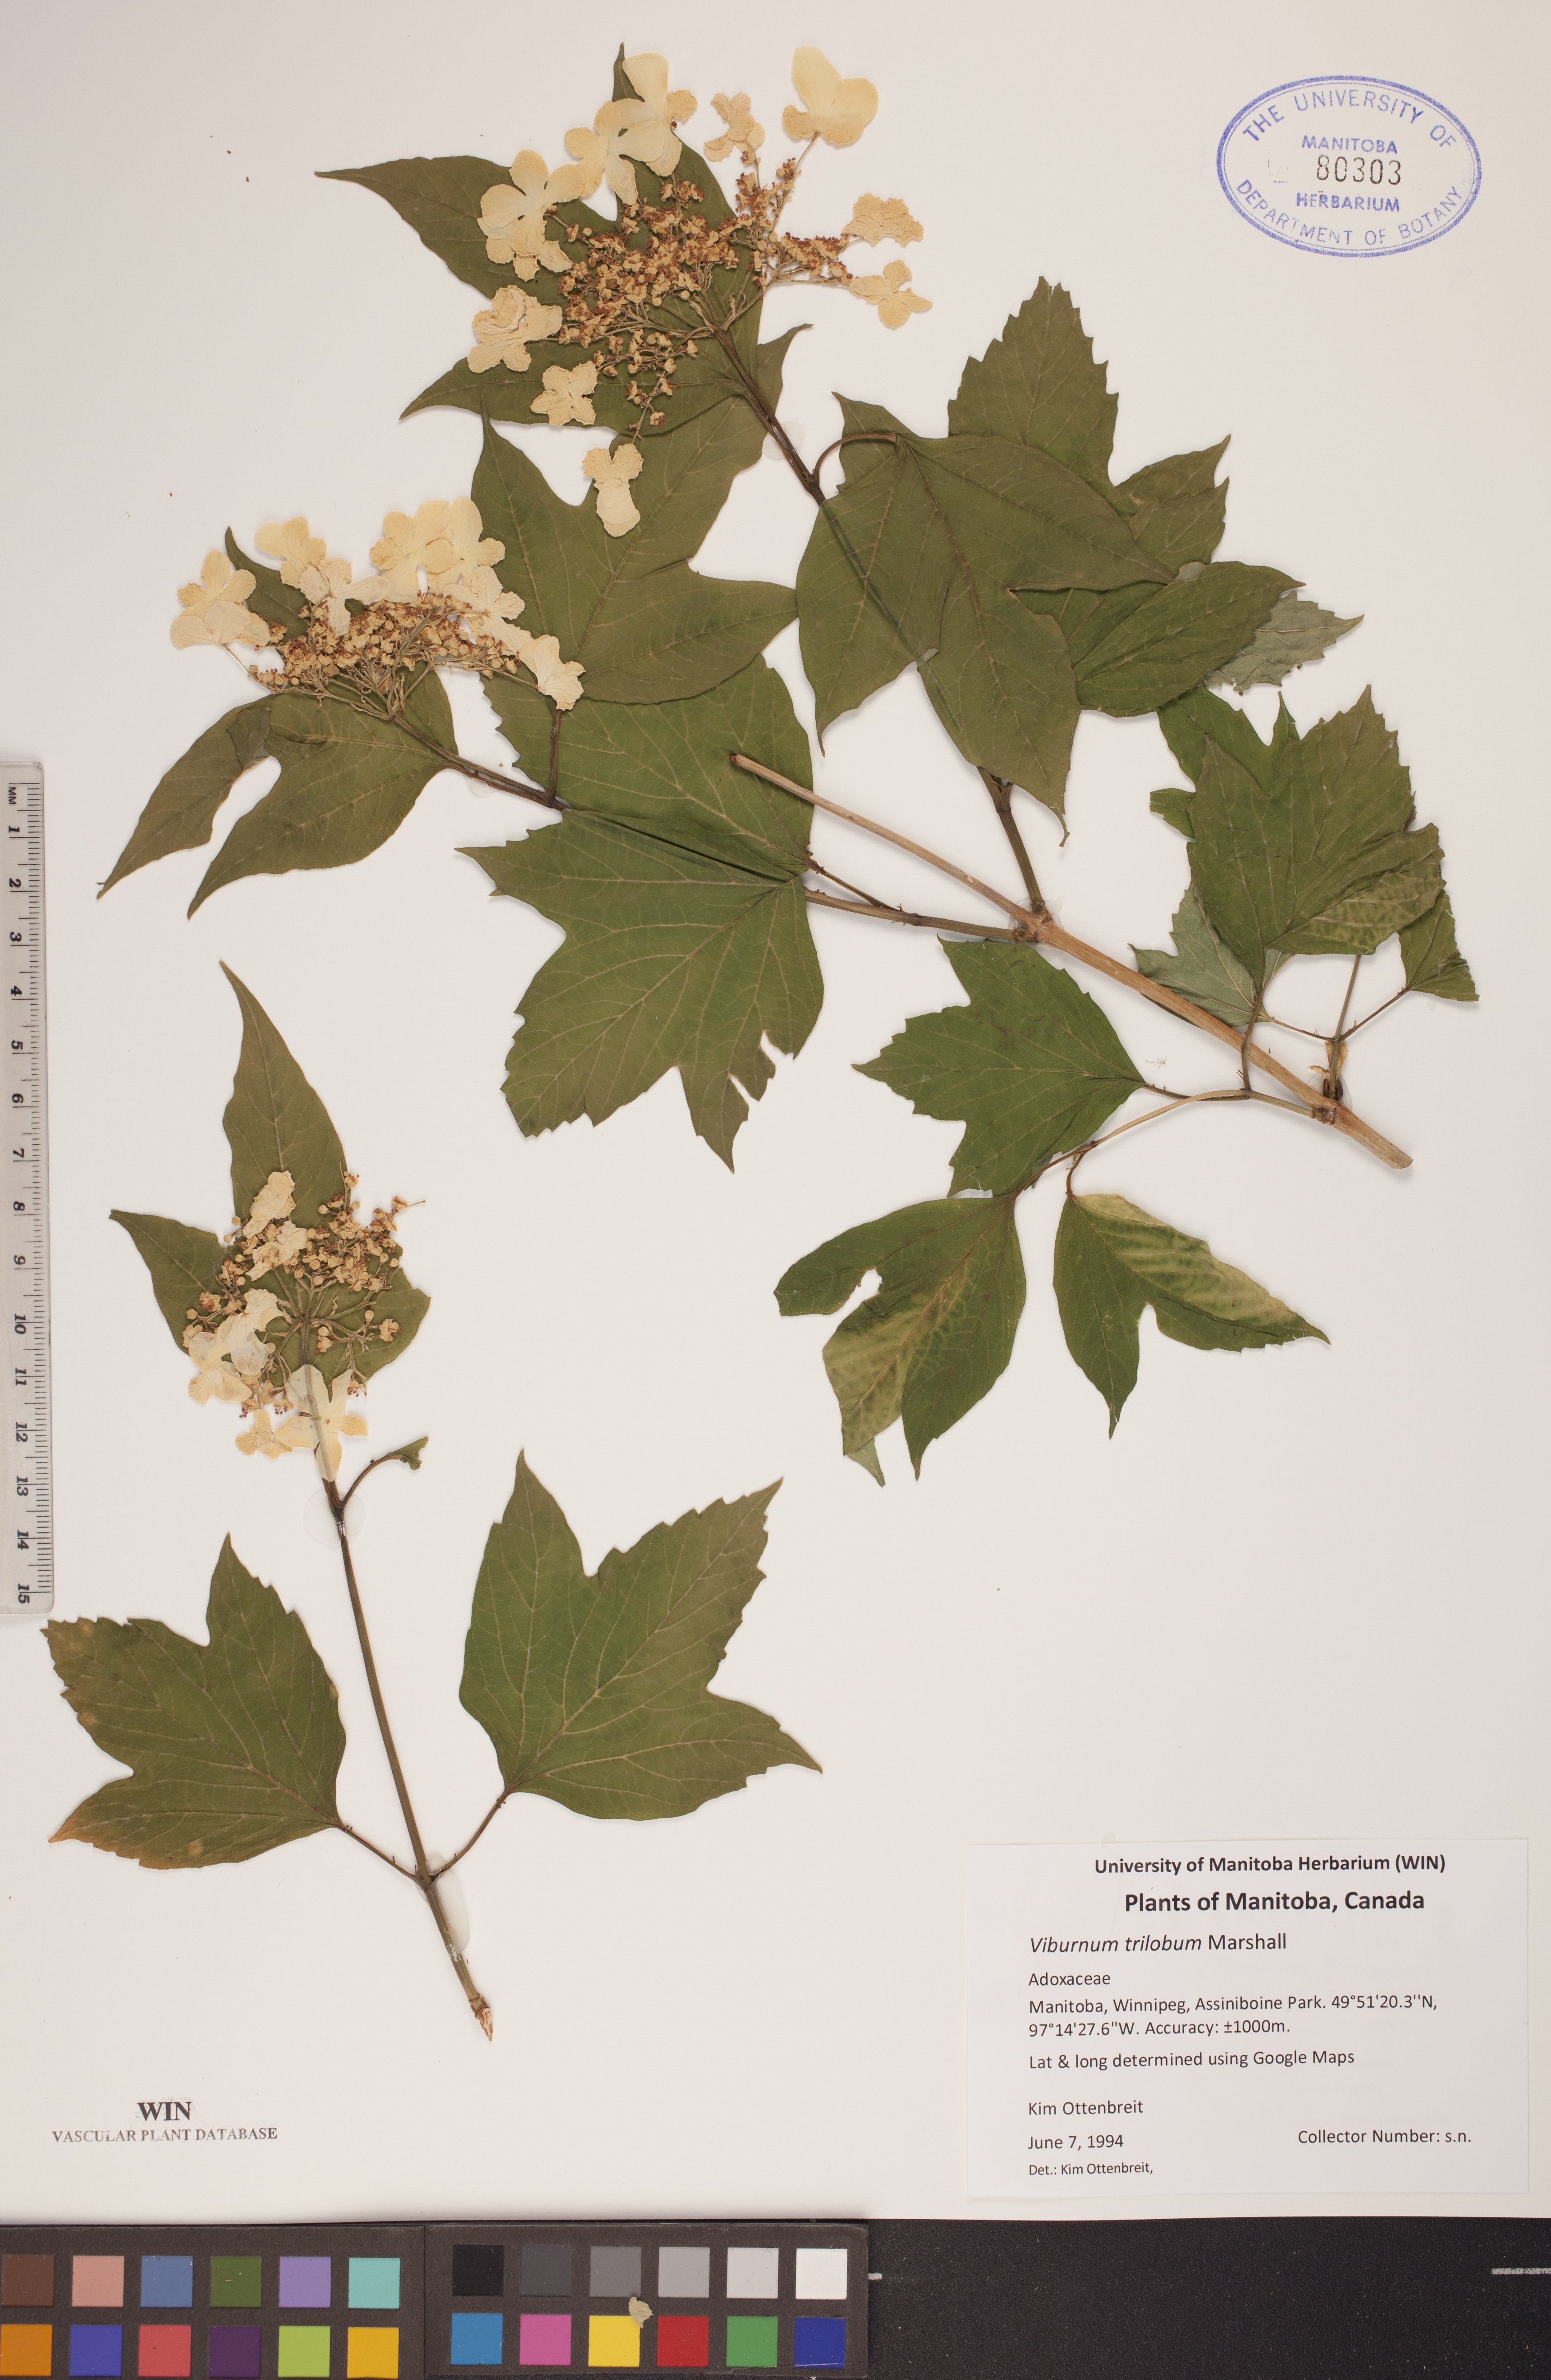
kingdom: Plantae
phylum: Tracheophyta
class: Magnoliopsida
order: Dipsacales
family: Viburnaceae
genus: Viburnum
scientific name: Viburnum trilobum
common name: American cranberrybush
